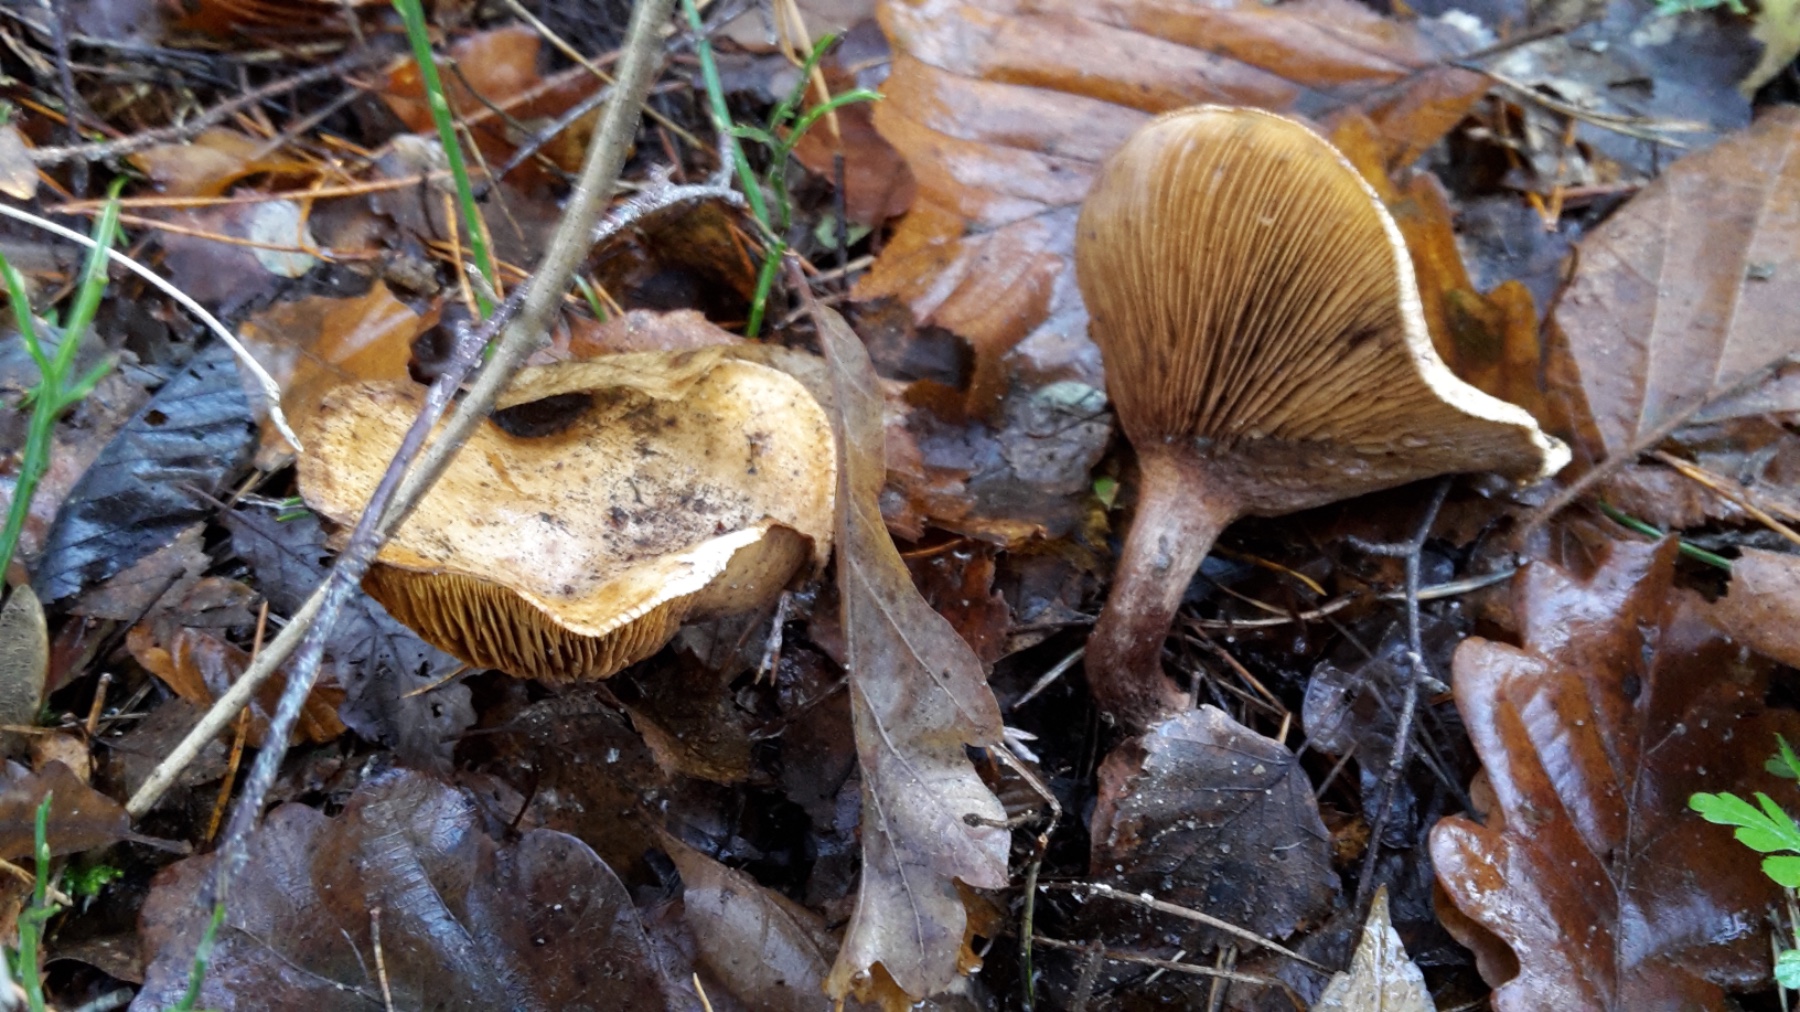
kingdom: Fungi
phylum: Basidiomycota
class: Agaricomycetes
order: Boletales
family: Paxillaceae
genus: Paxillus
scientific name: Paxillus involutus
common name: almindelig netbladhat
